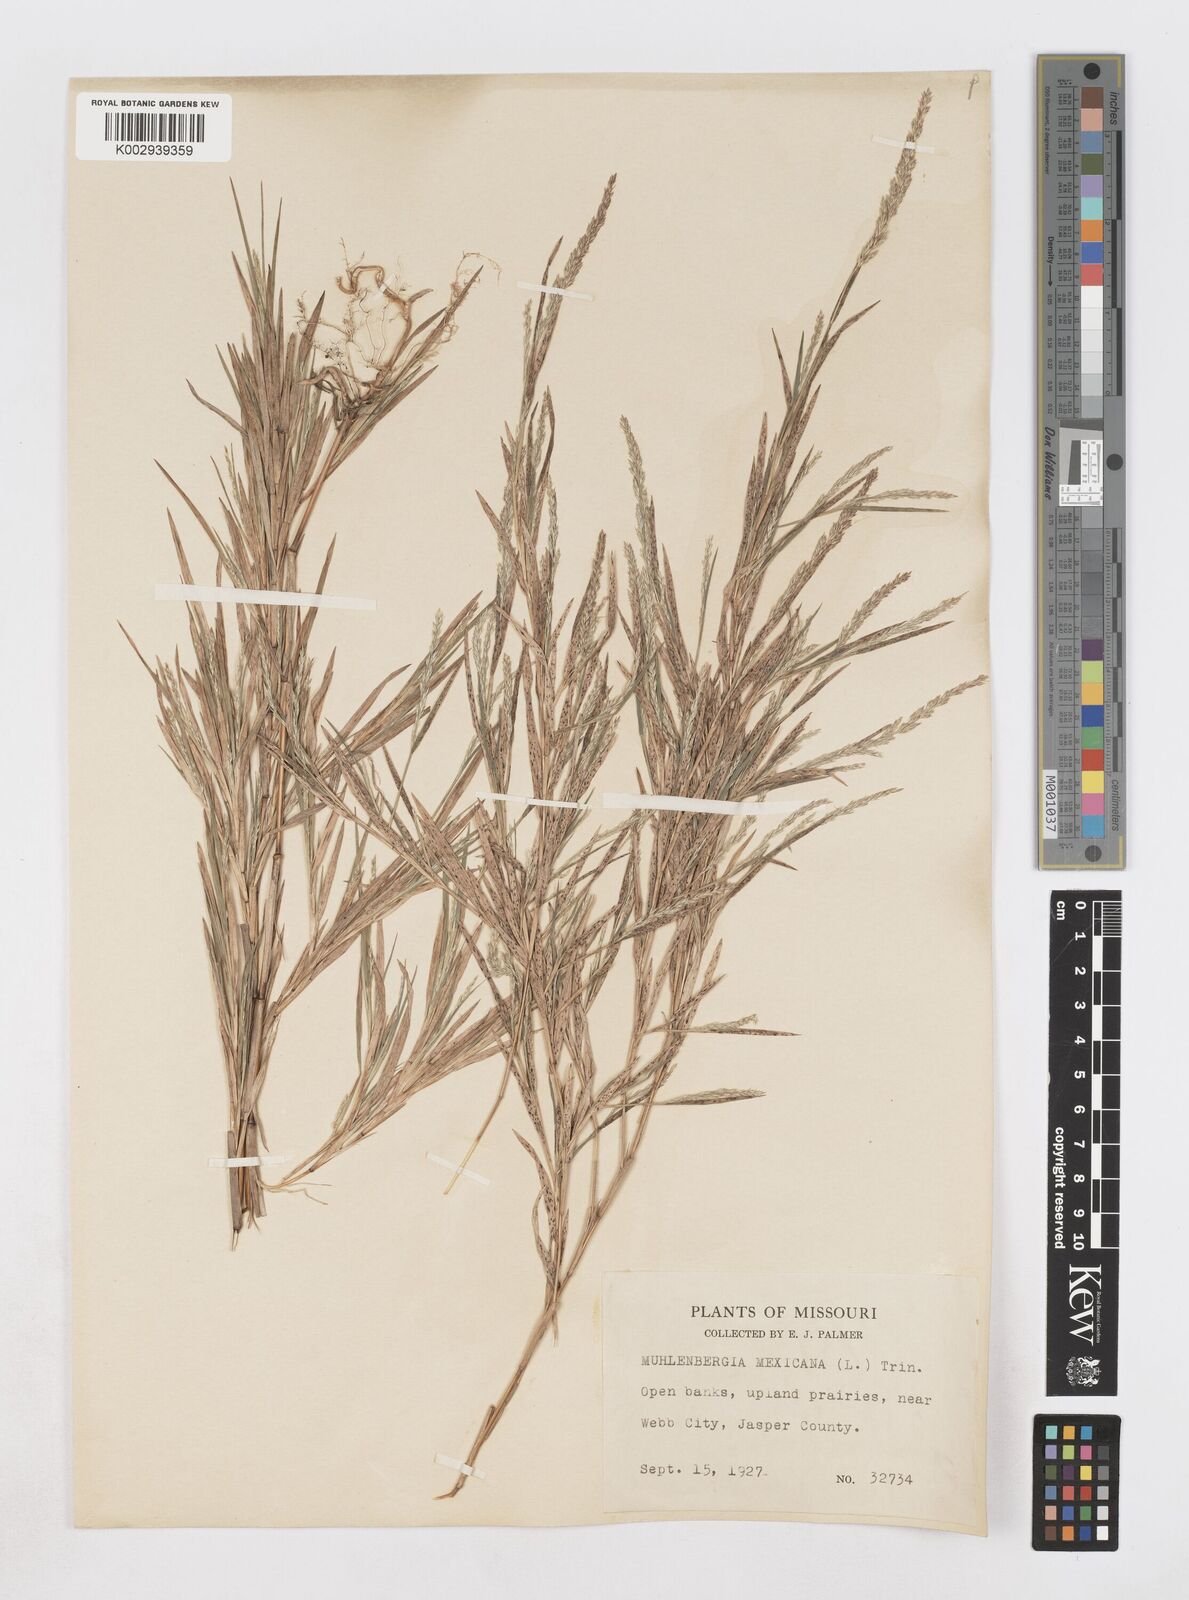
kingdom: Plantae
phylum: Tracheophyta
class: Liliopsida
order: Poales
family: Poaceae
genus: Muhlenbergia
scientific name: Muhlenbergia mexicana
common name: Mexican muhly
